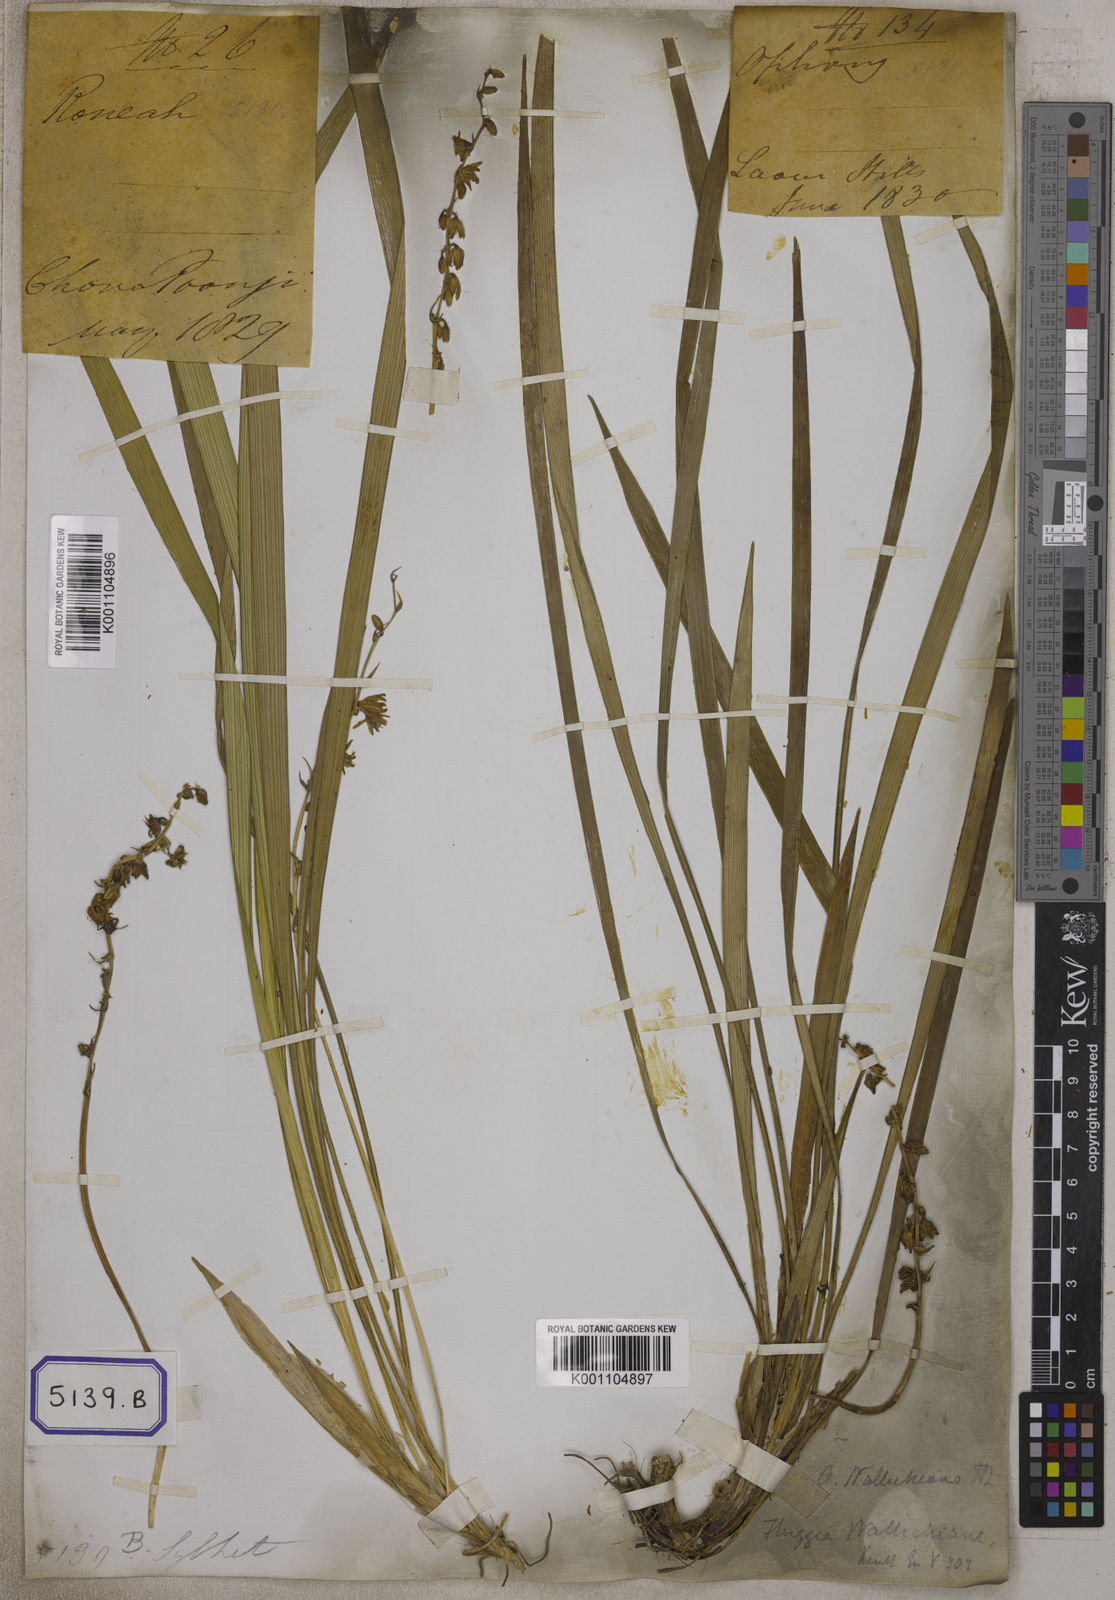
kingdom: Plantae
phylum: Tracheophyta
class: Liliopsida
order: Asparagales
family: Asparagaceae
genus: Ophiopogon
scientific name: Ophiopogon
